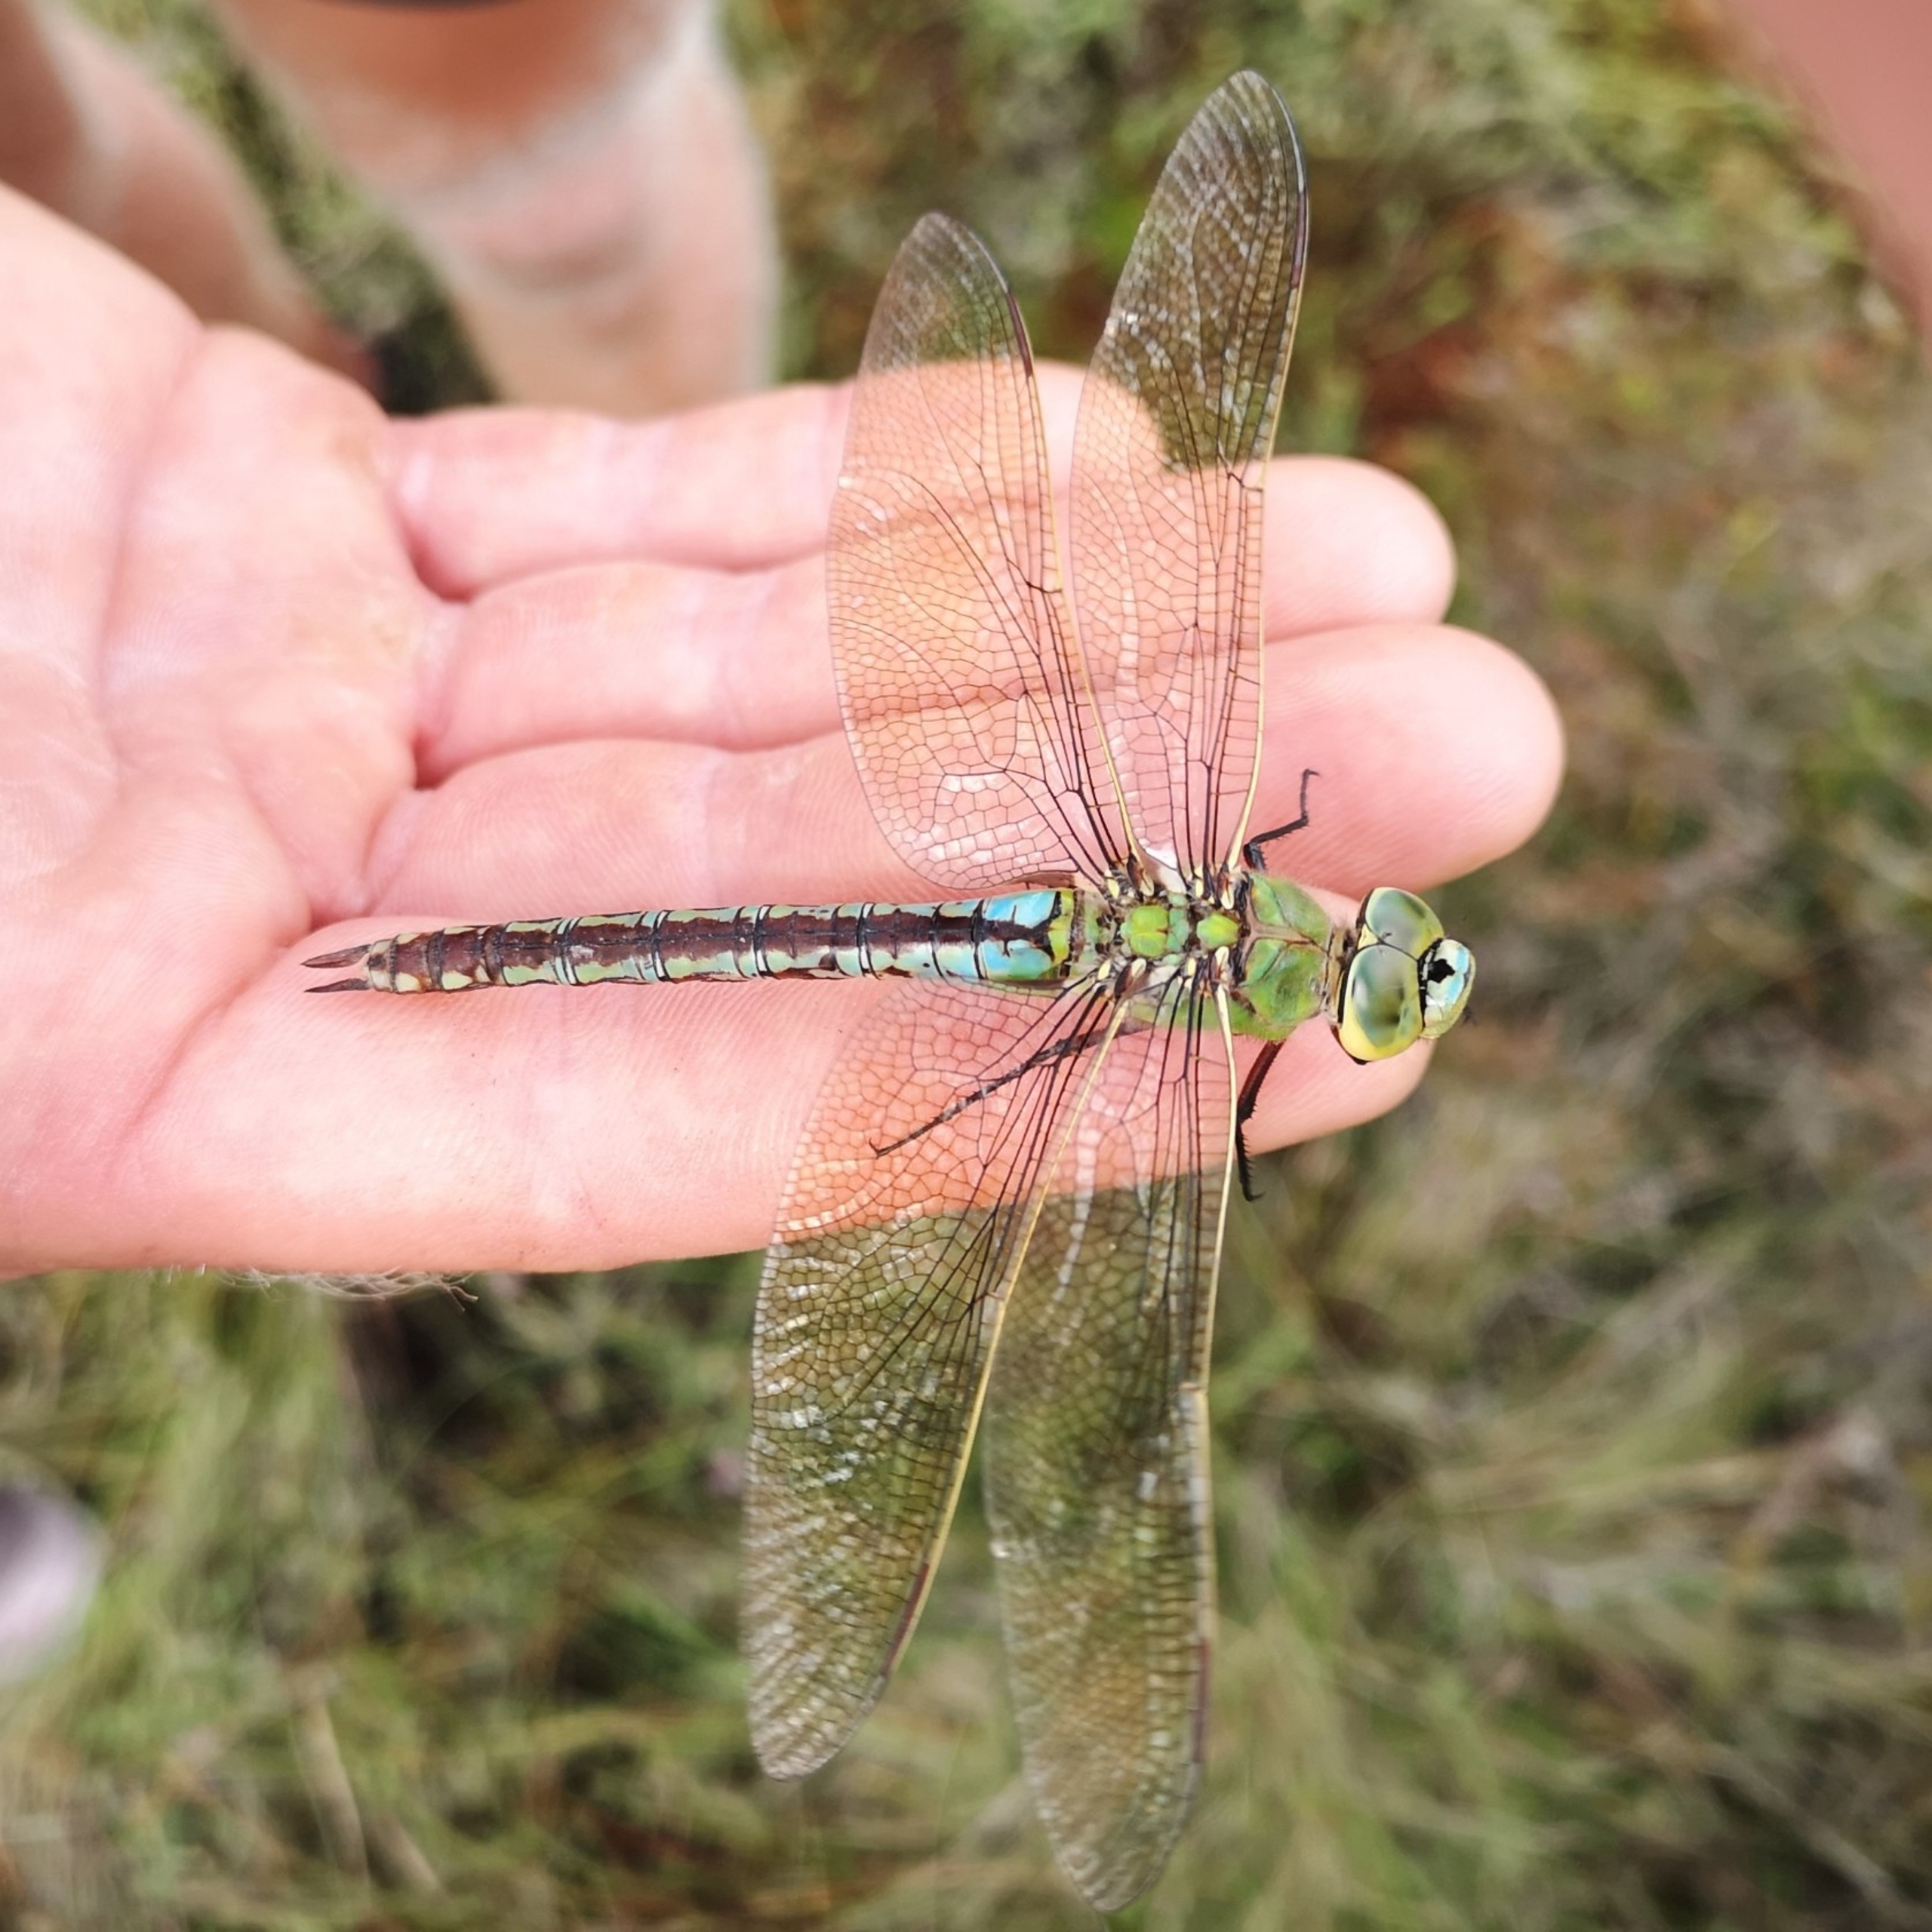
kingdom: Animalia
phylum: Arthropoda
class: Insecta
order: Odonata
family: Aeshnidae
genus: Anax
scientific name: Anax imperator
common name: Stor kejserguldsmed
